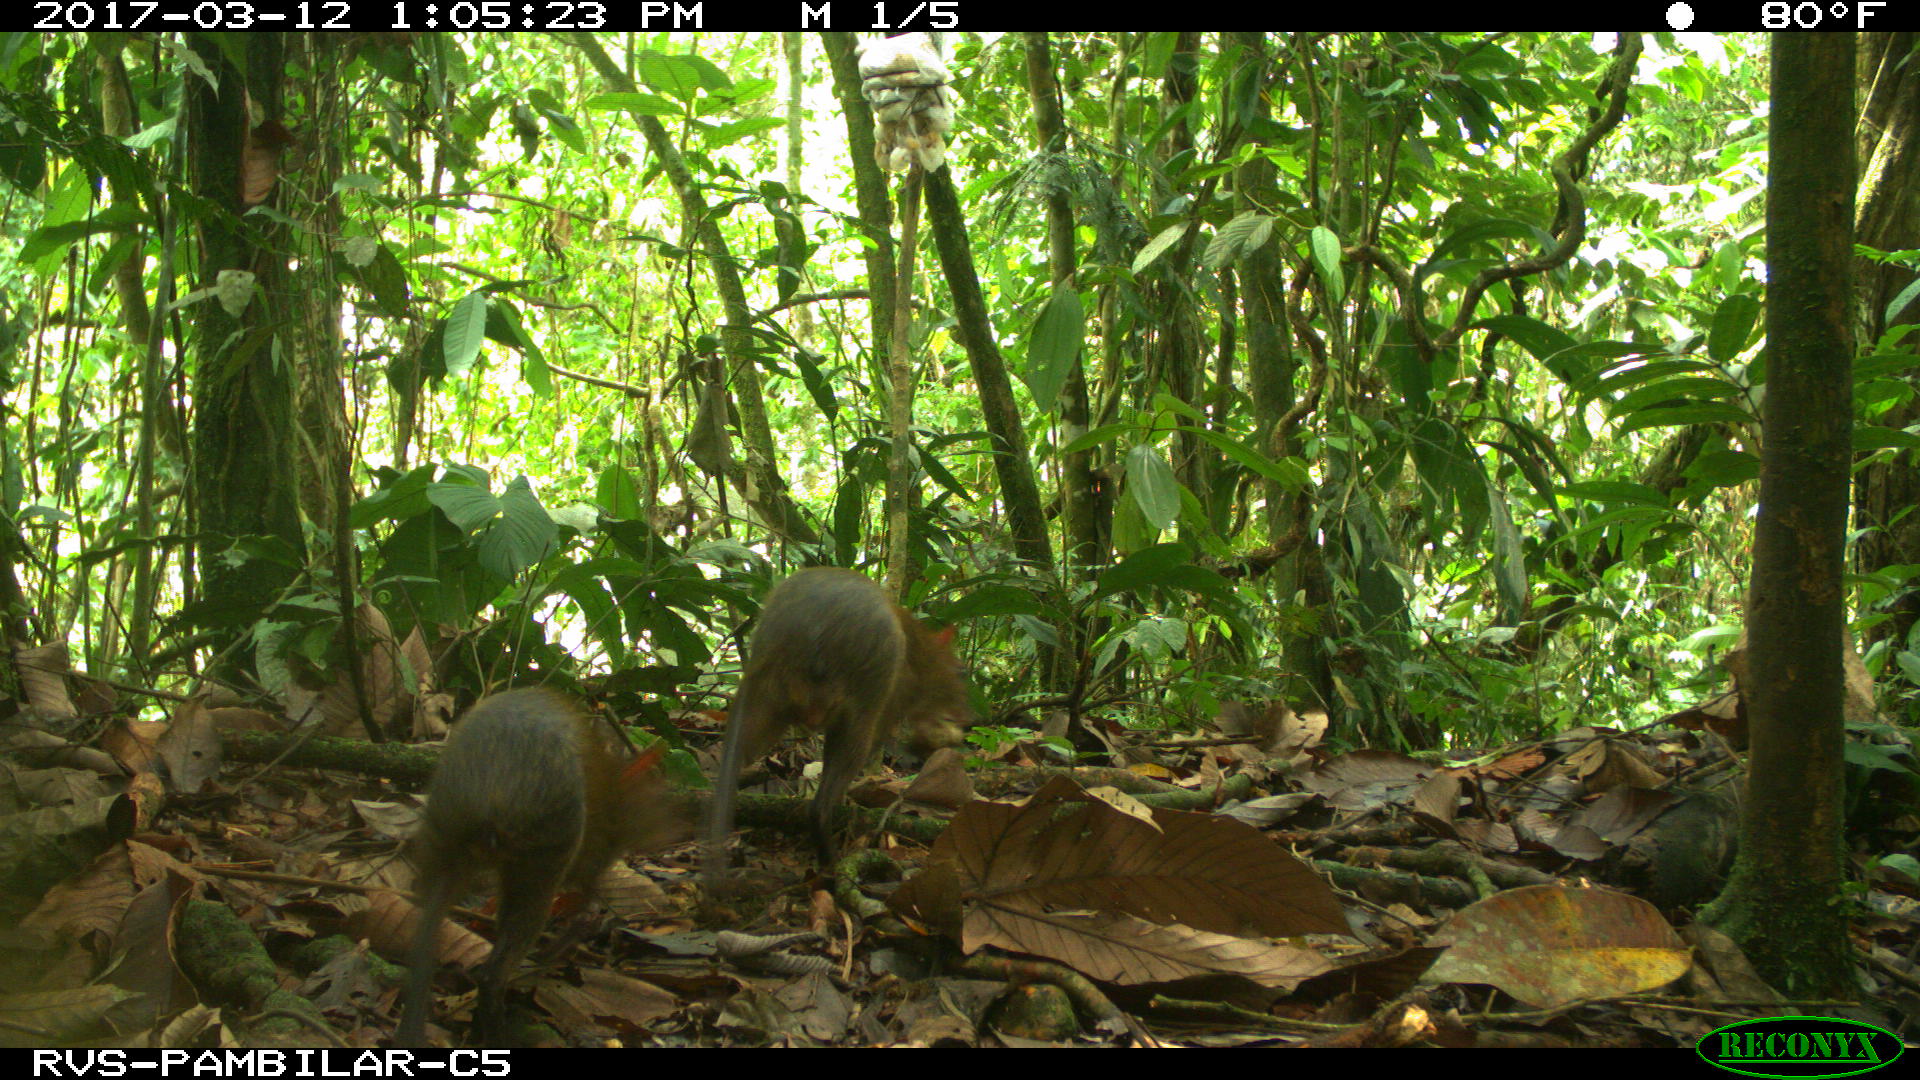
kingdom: Animalia
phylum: Chordata
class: Mammalia
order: Rodentia
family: Dasyproctidae
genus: Dasyprocta
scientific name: Dasyprocta punctata
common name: Central american agouti
